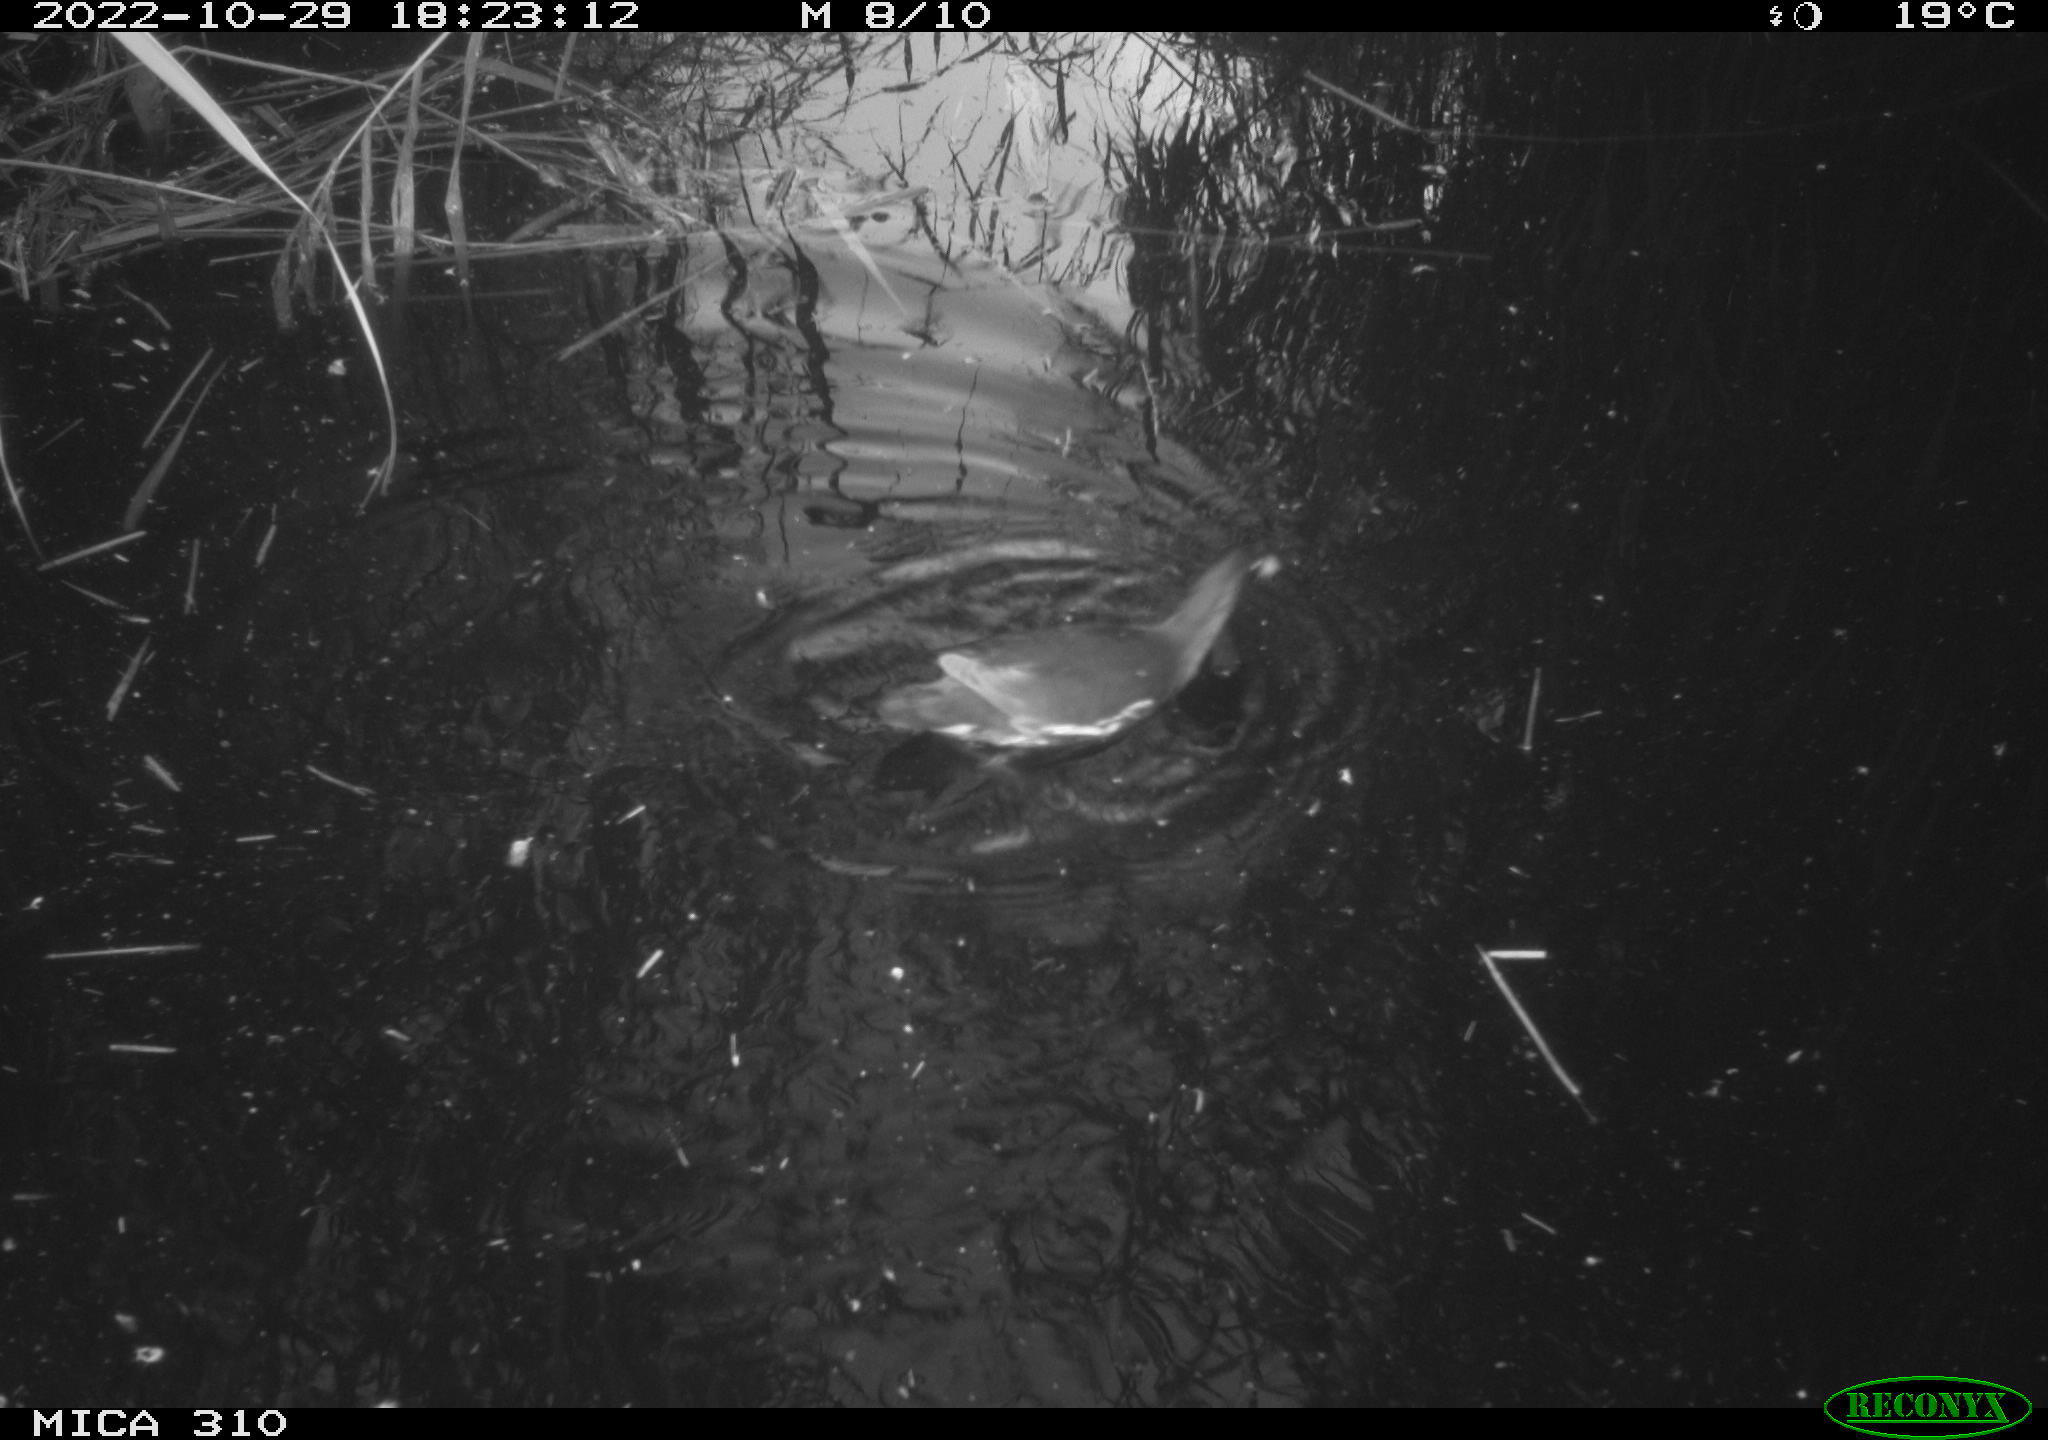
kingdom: Animalia
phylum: Chordata
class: Aves
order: Gruiformes
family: Rallidae
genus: Gallinula
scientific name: Gallinula chloropus
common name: Common moorhen
